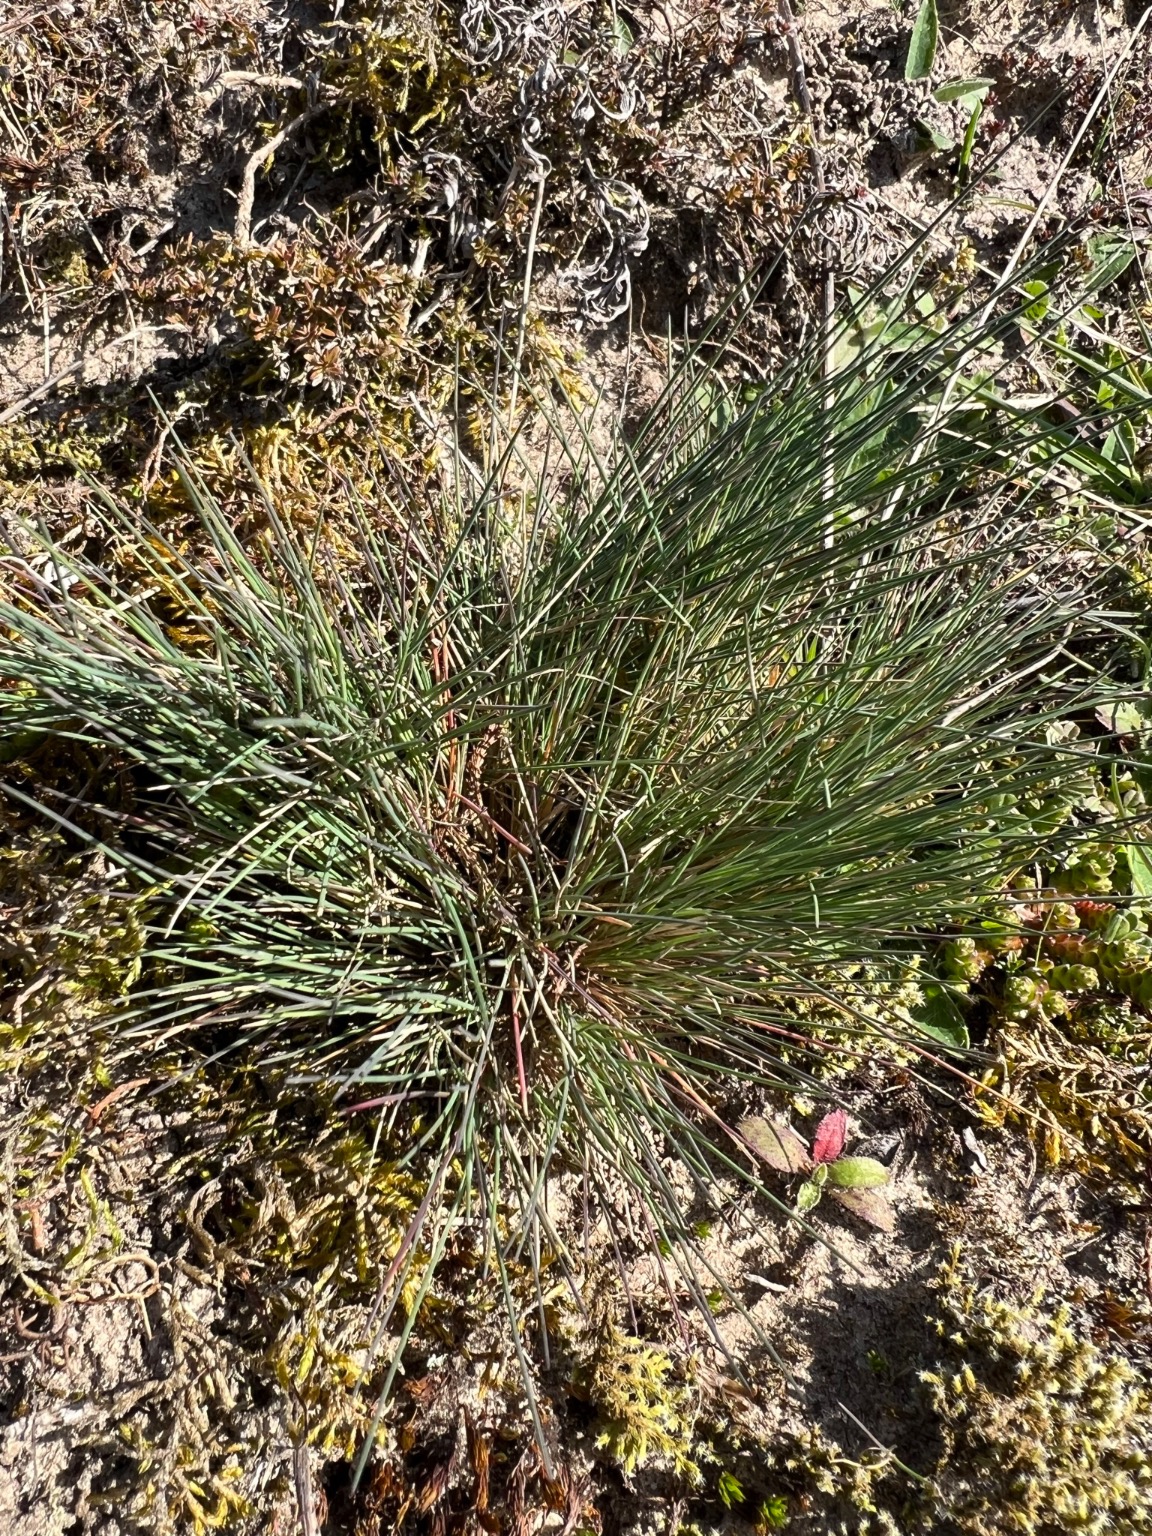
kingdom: Plantae
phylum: Tracheophyta
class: Liliopsida
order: Poales
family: Poaceae
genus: Corynephorus
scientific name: Corynephorus canescens
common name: Sandskæg
